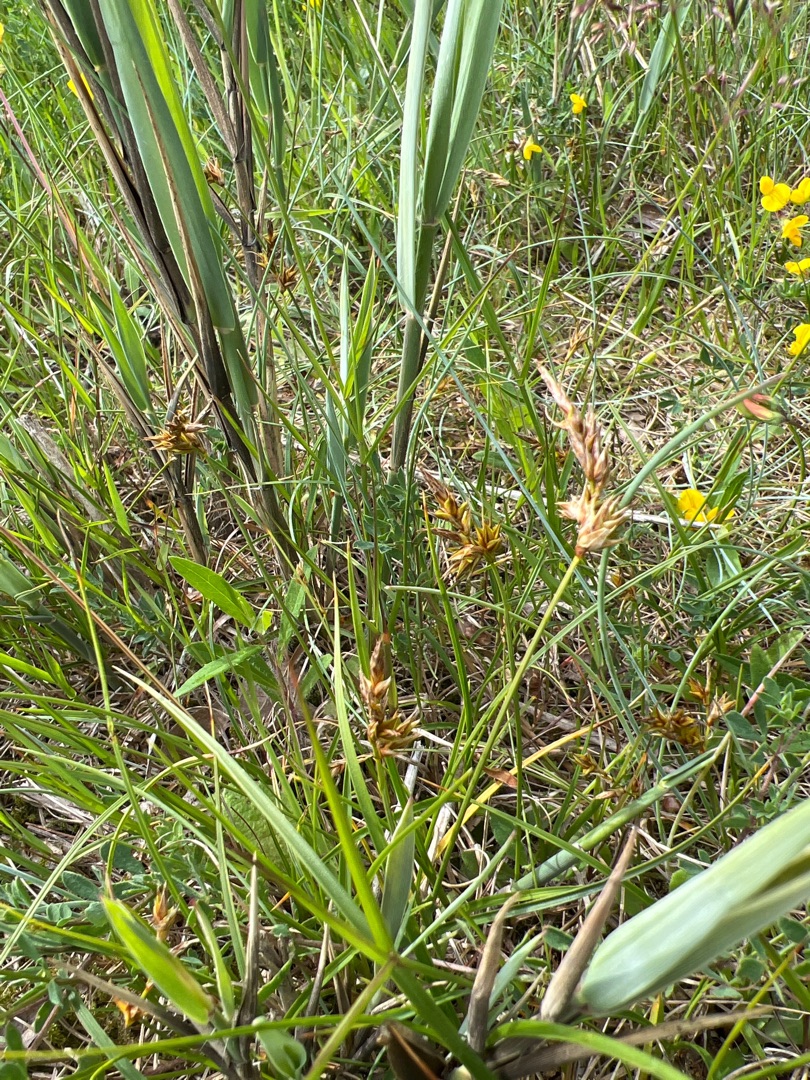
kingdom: Plantae
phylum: Tracheophyta
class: Liliopsida
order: Poales
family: Cyperaceae
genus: Carex
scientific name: Carex arenaria
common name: Sand-star
